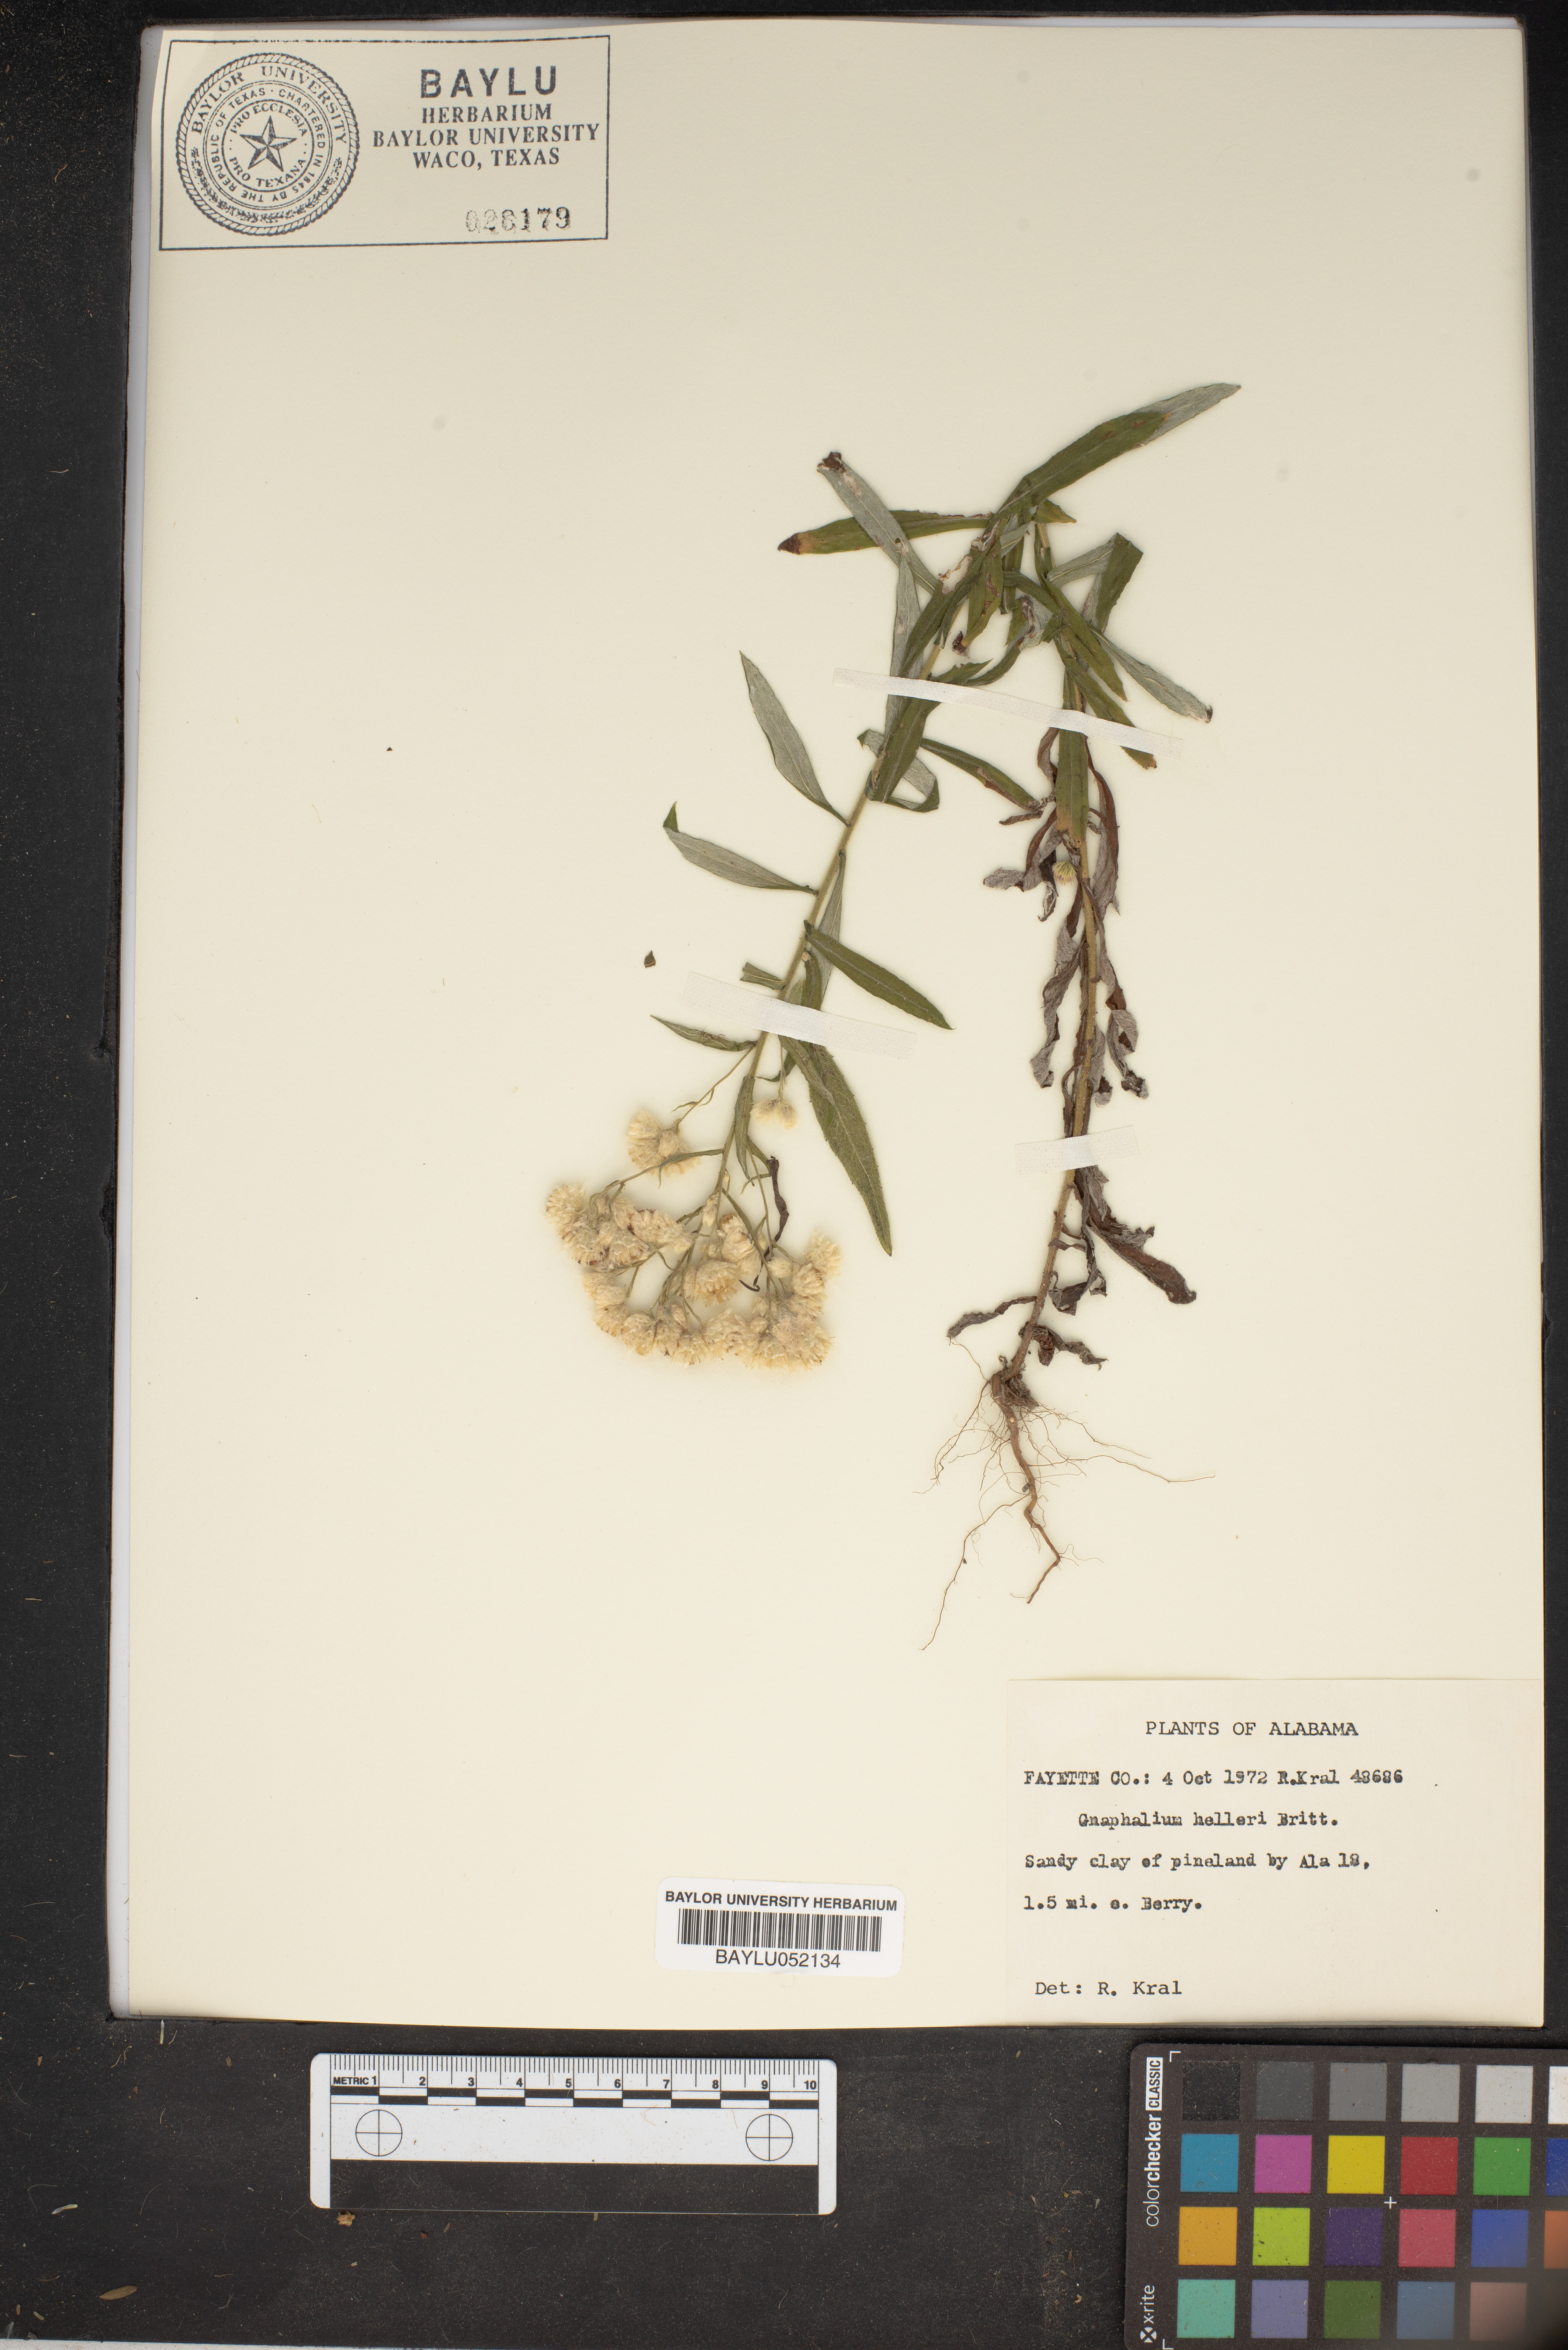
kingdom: Plantae
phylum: Tracheophyta
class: Magnoliopsida
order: Asterales
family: Asteraceae
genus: Pseudognaphalium
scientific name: Pseudognaphalium helleri
